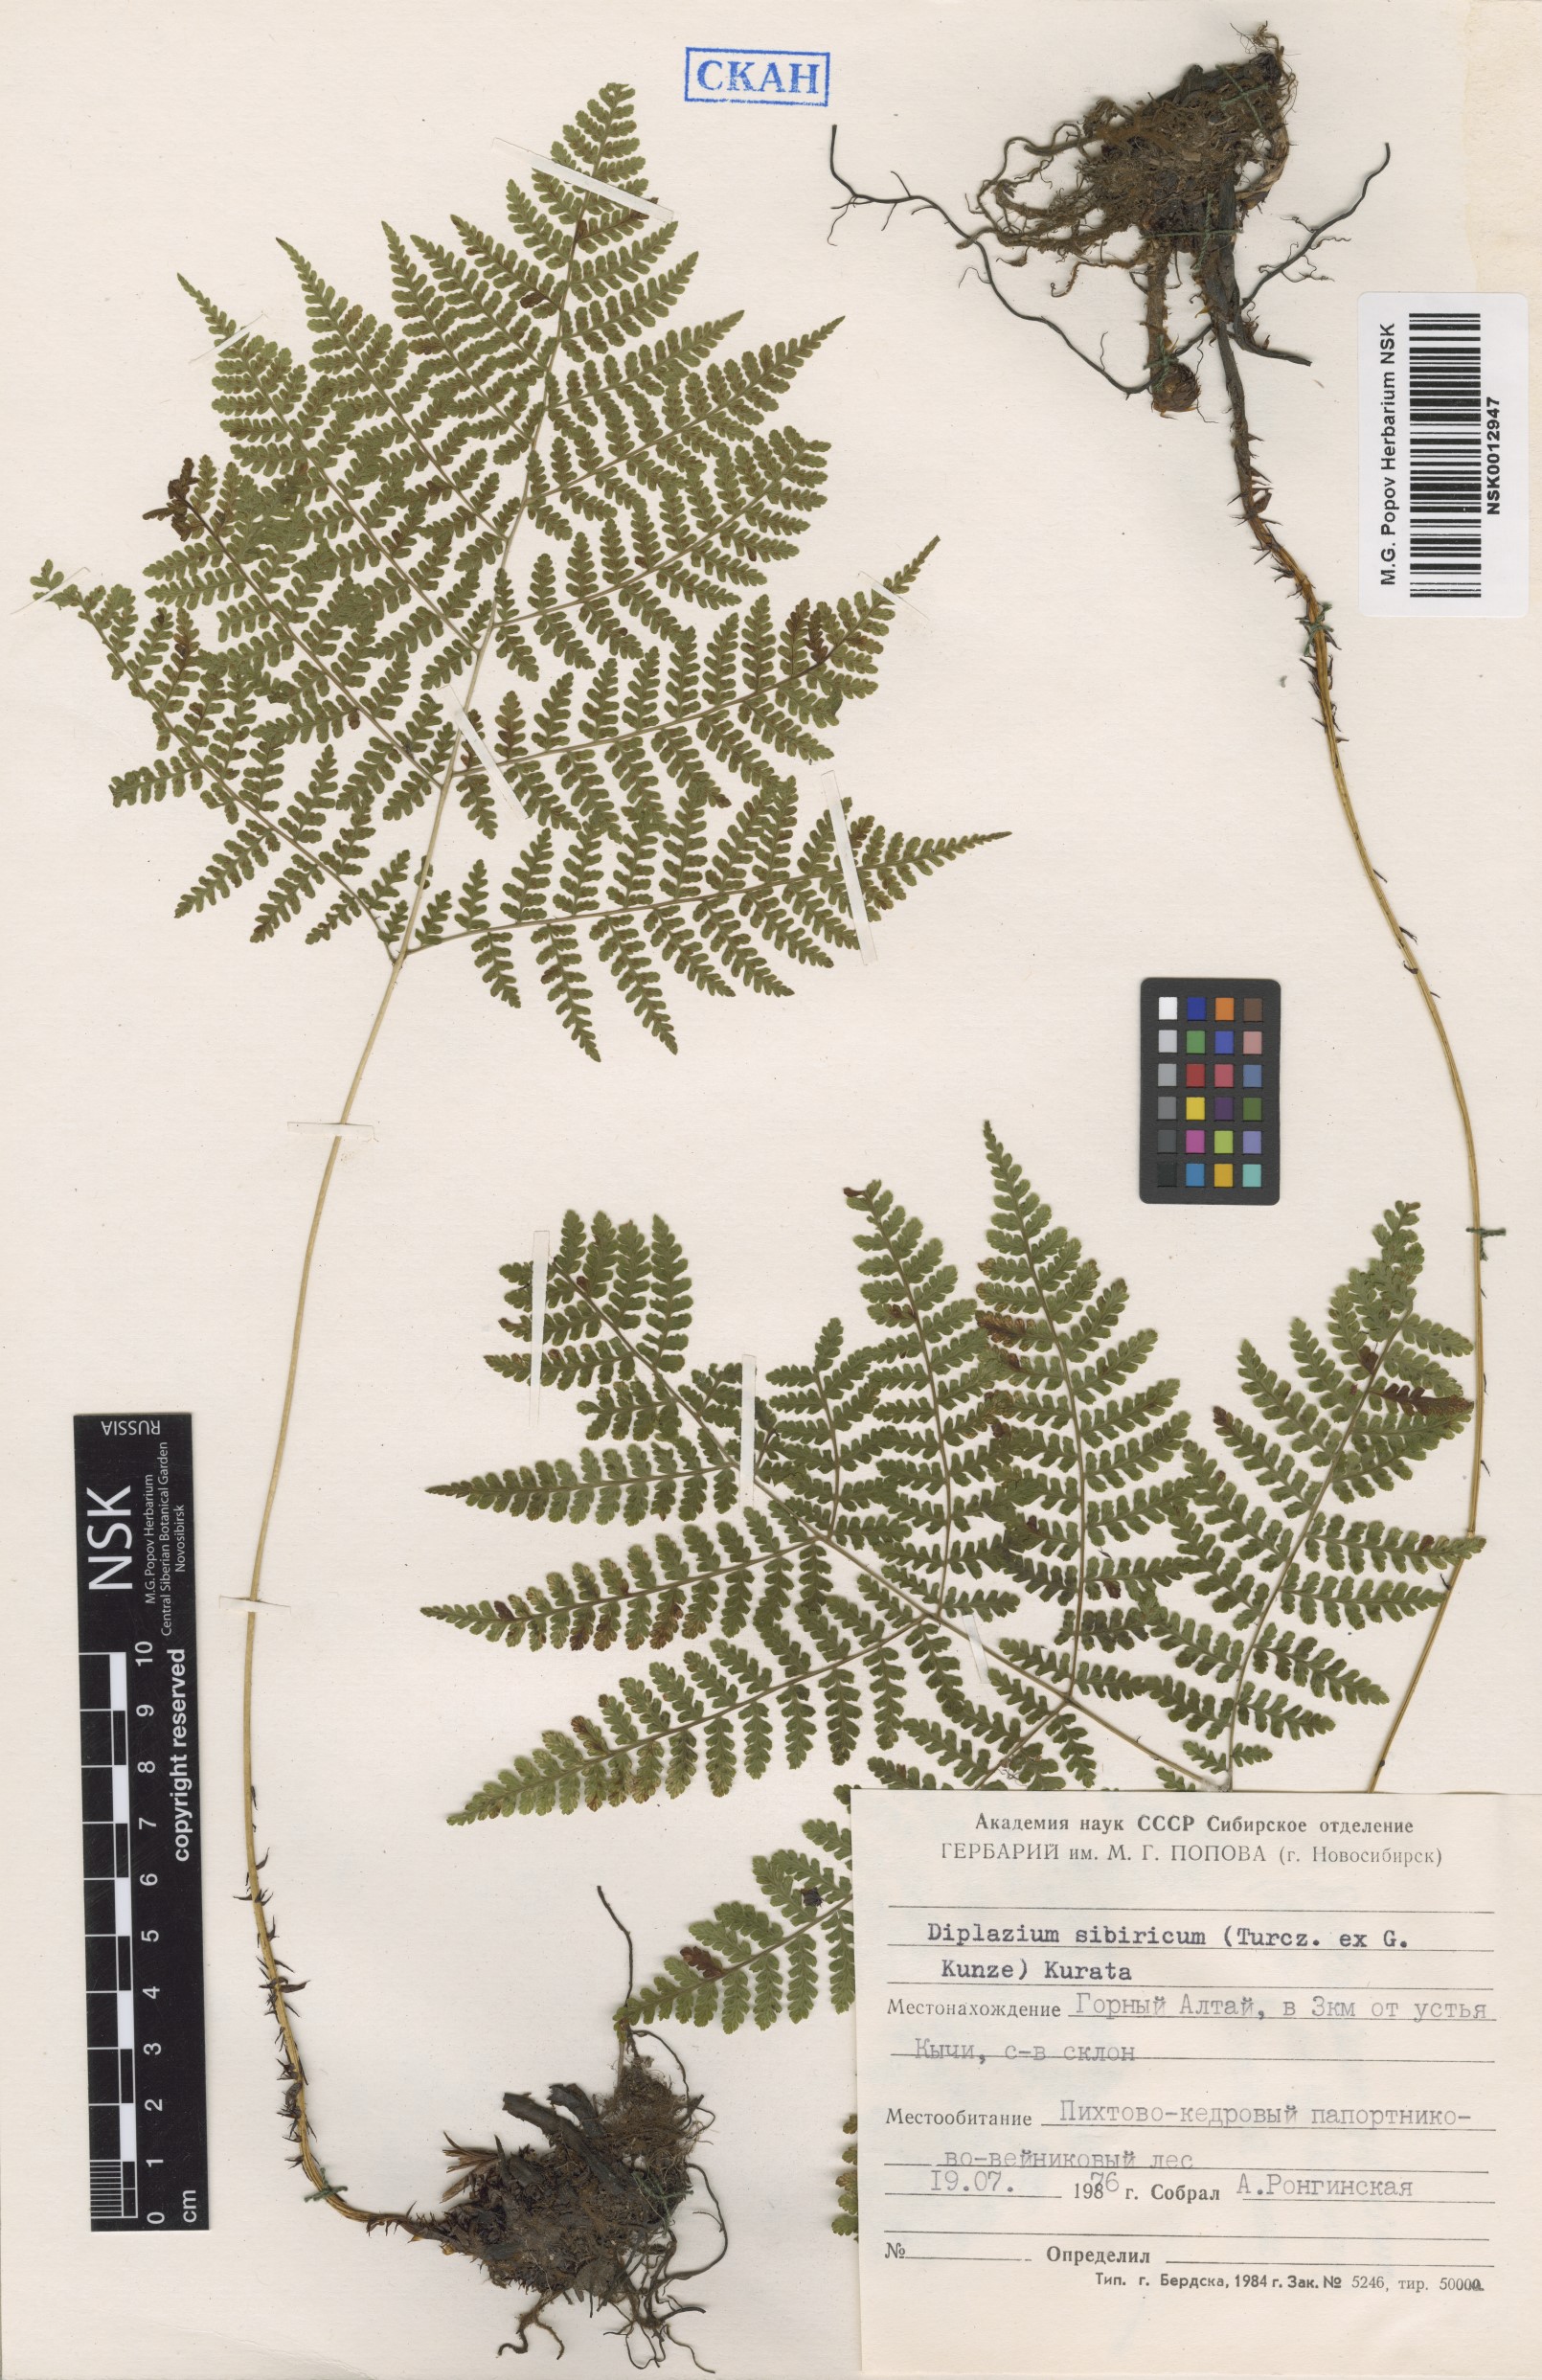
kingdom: Plantae
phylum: Tracheophyta
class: Polypodiopsida
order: Polypodiales
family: Athyriaceae
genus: Diplazium
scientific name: Diplazium sibiricum
